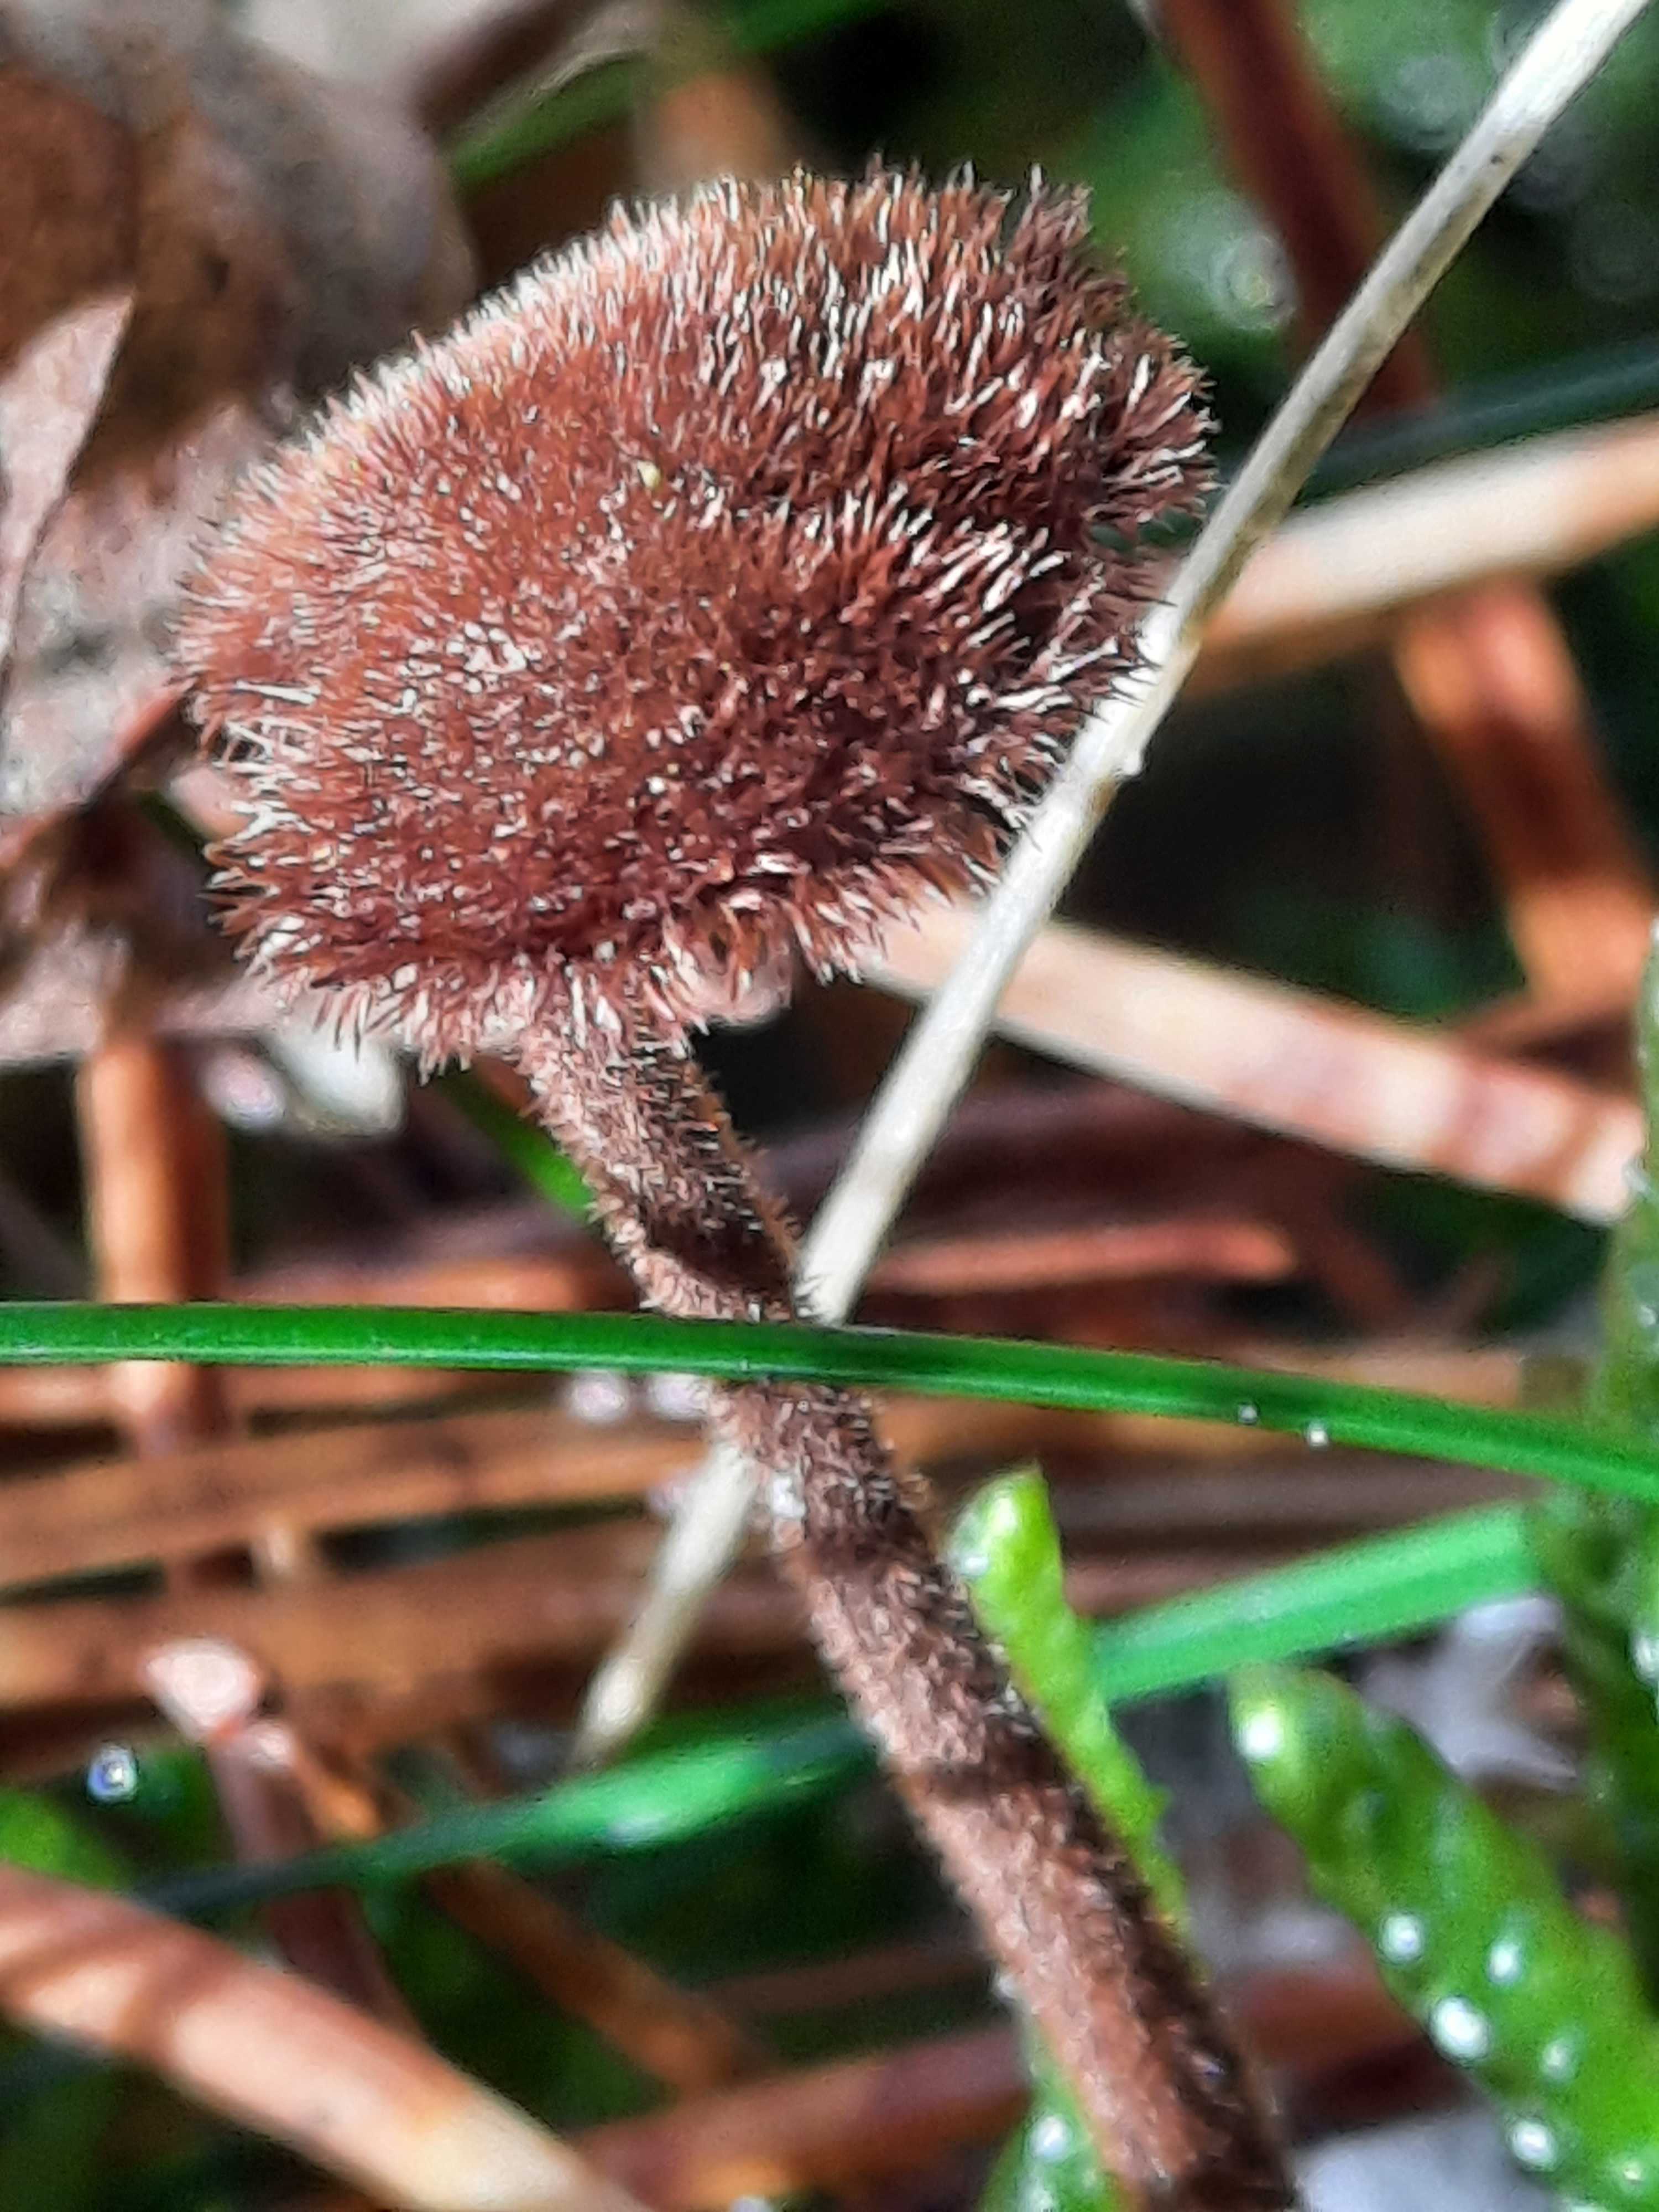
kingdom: Fungi
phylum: Basidiomycota
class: Agaricomycetes
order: Russulales
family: Auriscalpiaceae
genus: Auriscalpium
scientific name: Auriscalpium vulgare
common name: koglepigsvamp
